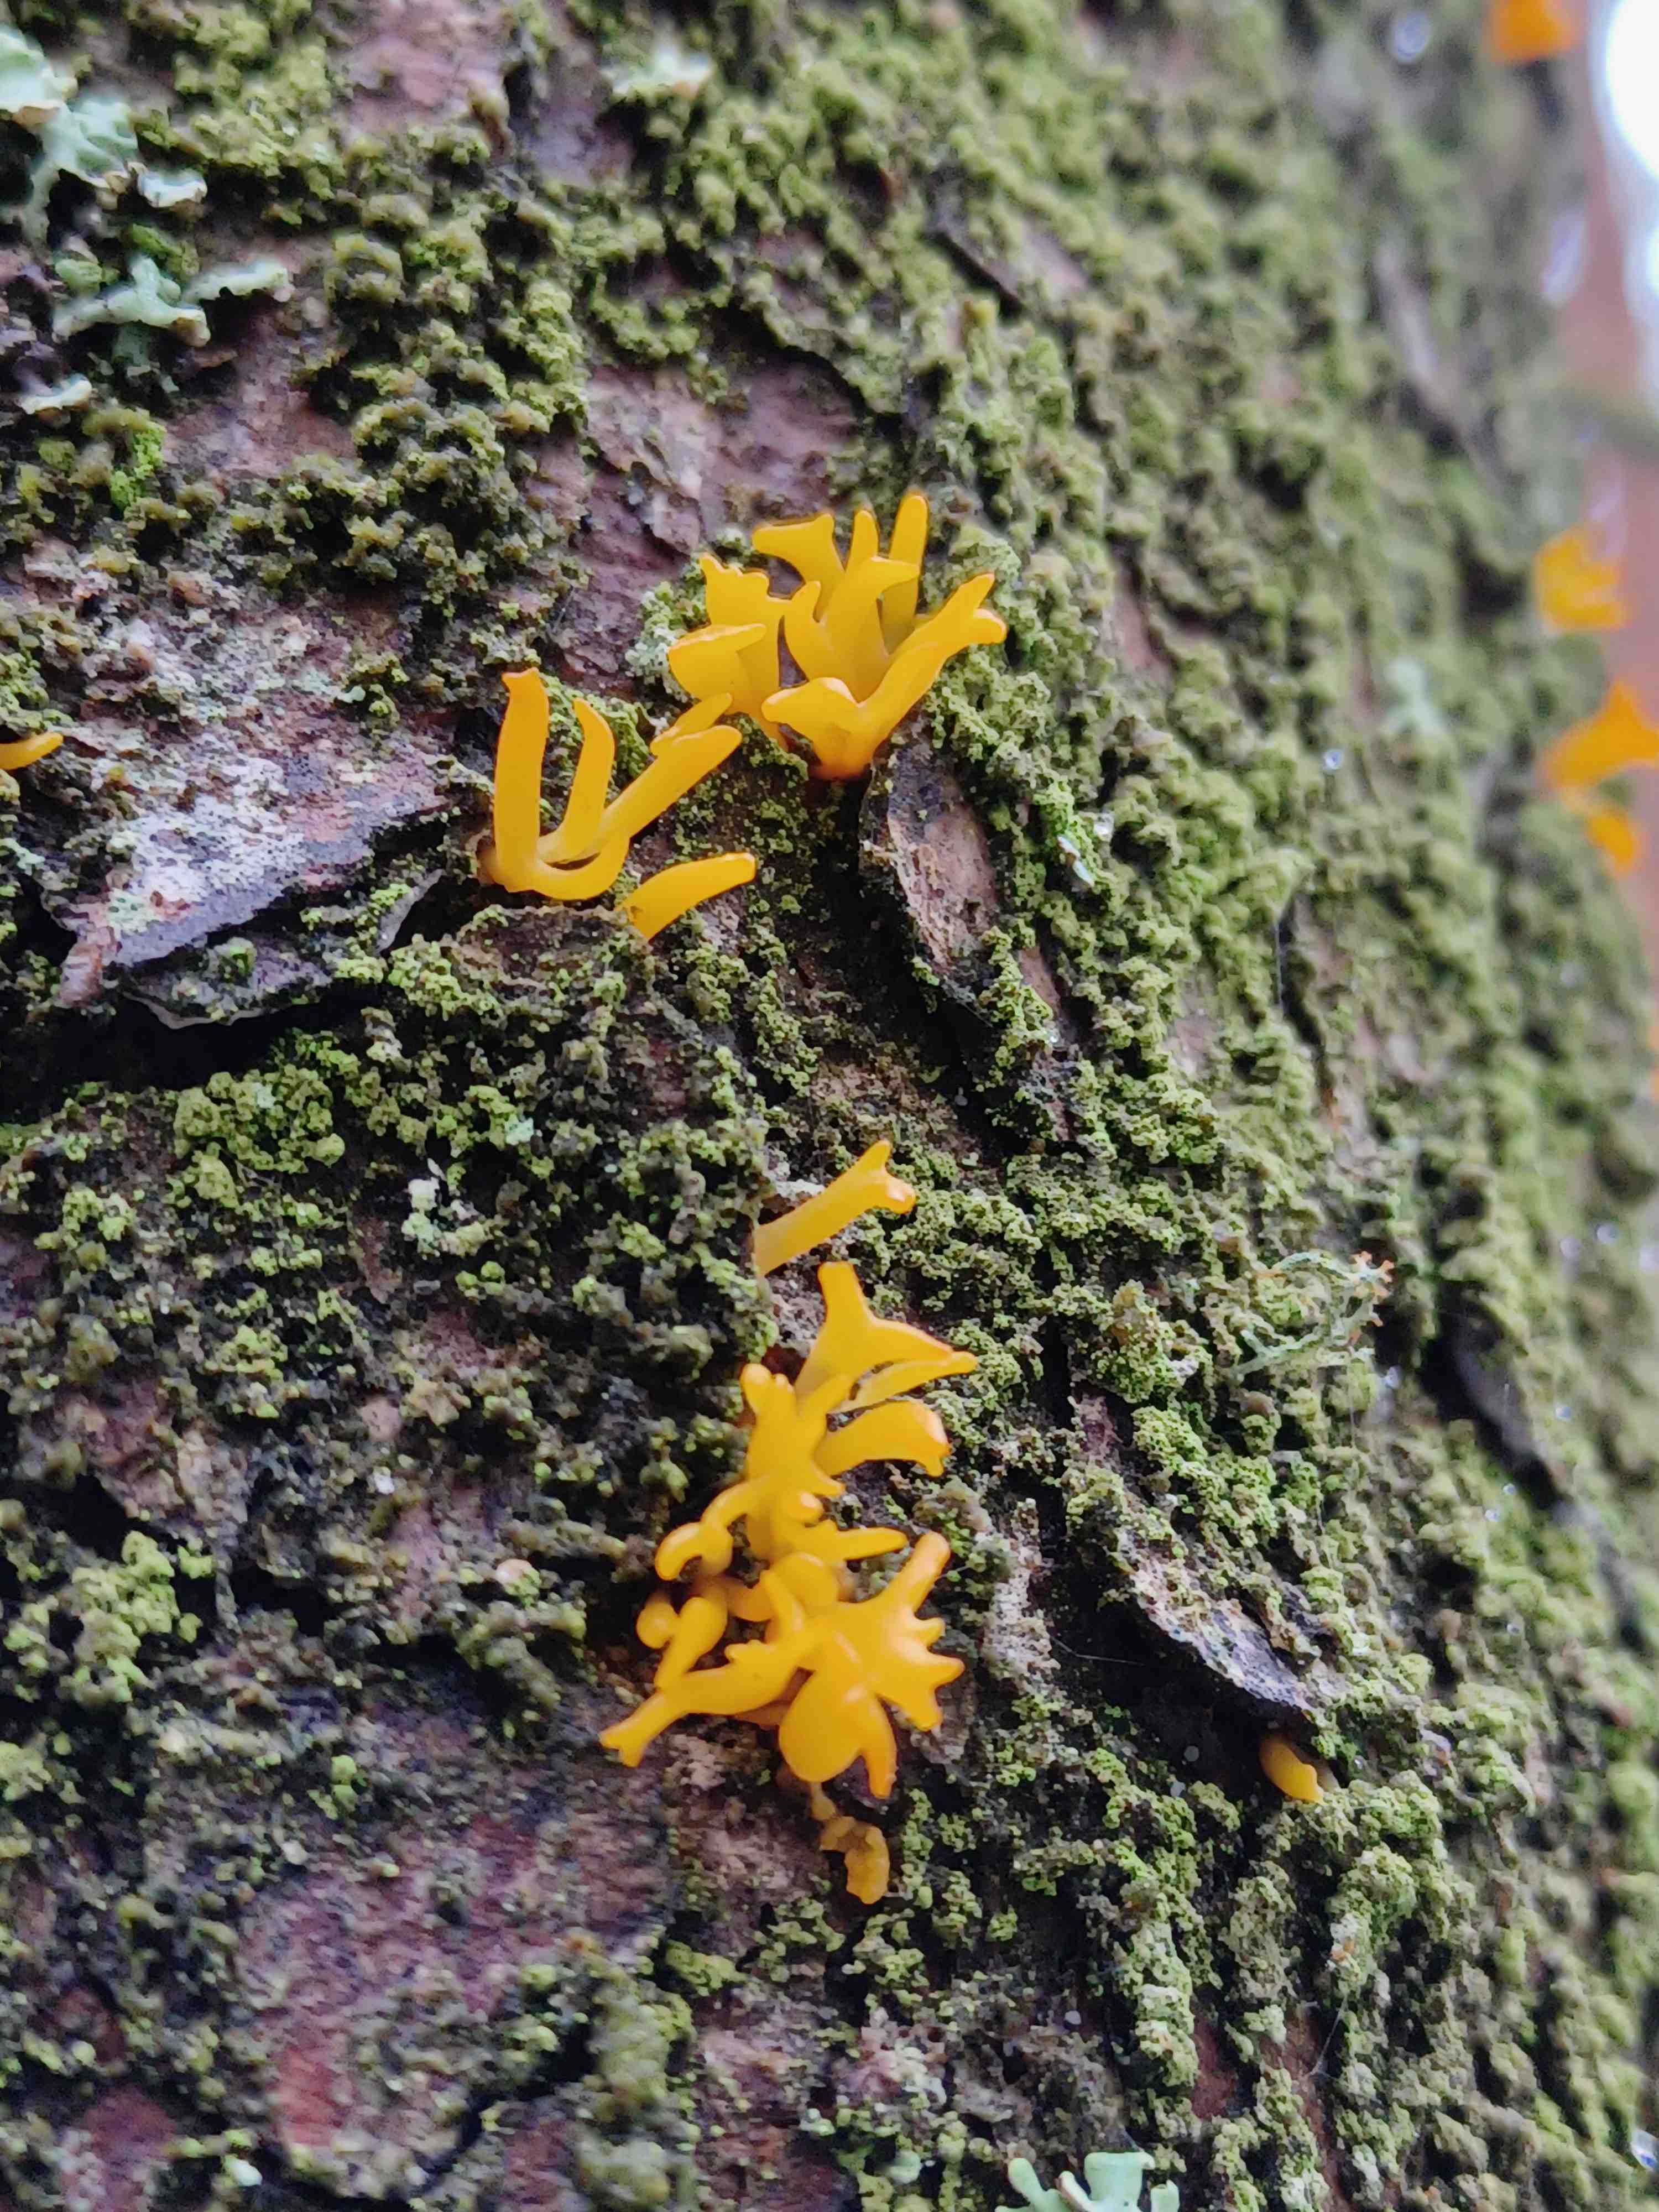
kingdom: Fungi
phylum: Basidiomycota
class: Dacrymycetes
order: Dacrymycetales
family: Dacrymycetaceae
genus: Calocera
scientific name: Calocera furcata
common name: fyrre-guldgaffel
